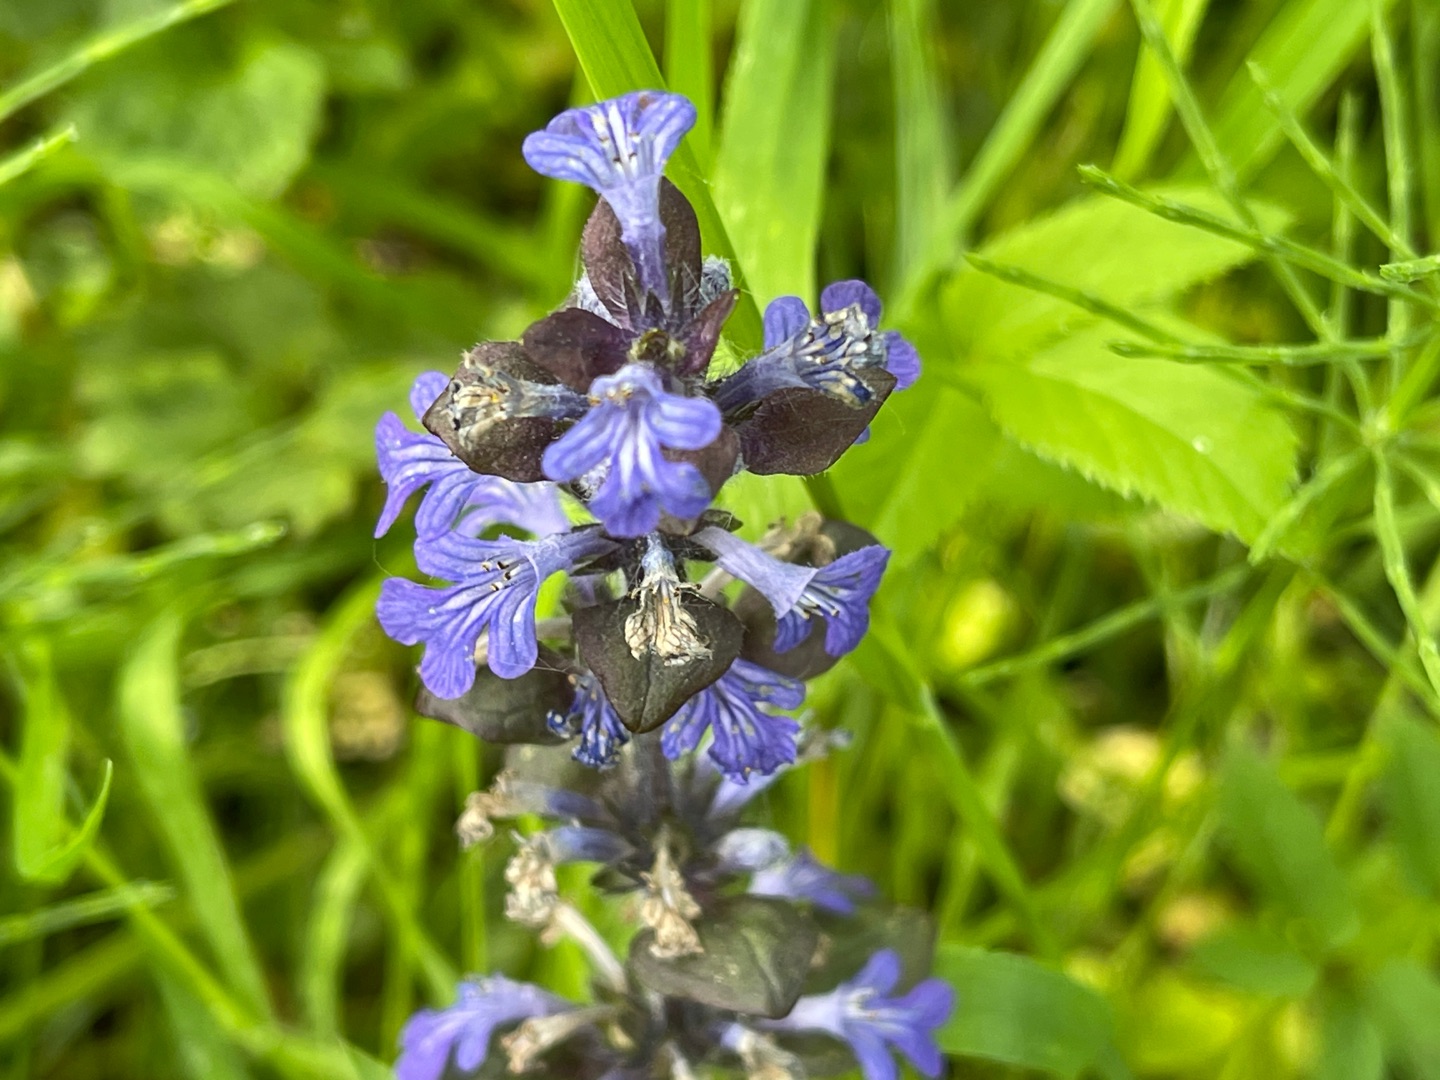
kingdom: Plantae
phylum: Tracheophyta
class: Magnoliopsida
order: Lamiales
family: Lamiaceae
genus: Ajuga
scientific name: Ajuga reptans
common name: Krybende læbeløs
